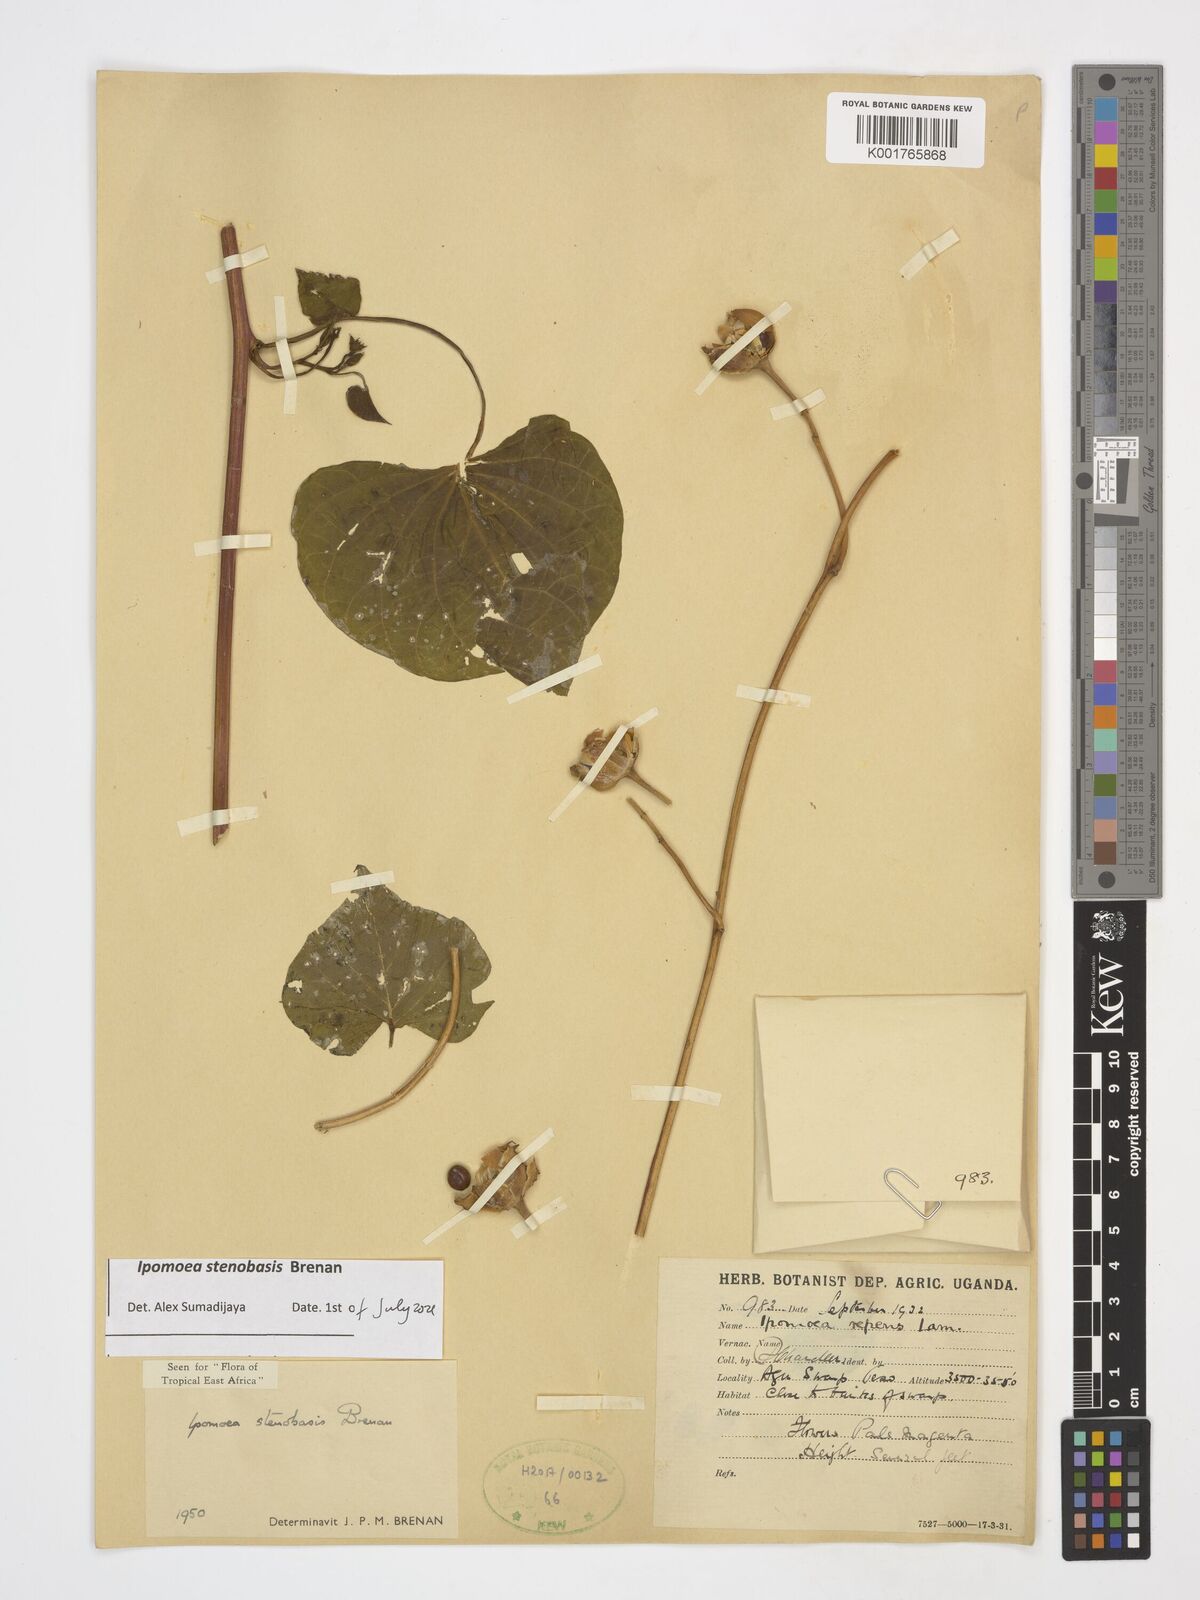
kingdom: Plantae
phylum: Tracheophyta
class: Magnoliopsida
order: Solanales
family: Convolvulaceae
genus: Ipomoea
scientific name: Ipomoea stenobasis
